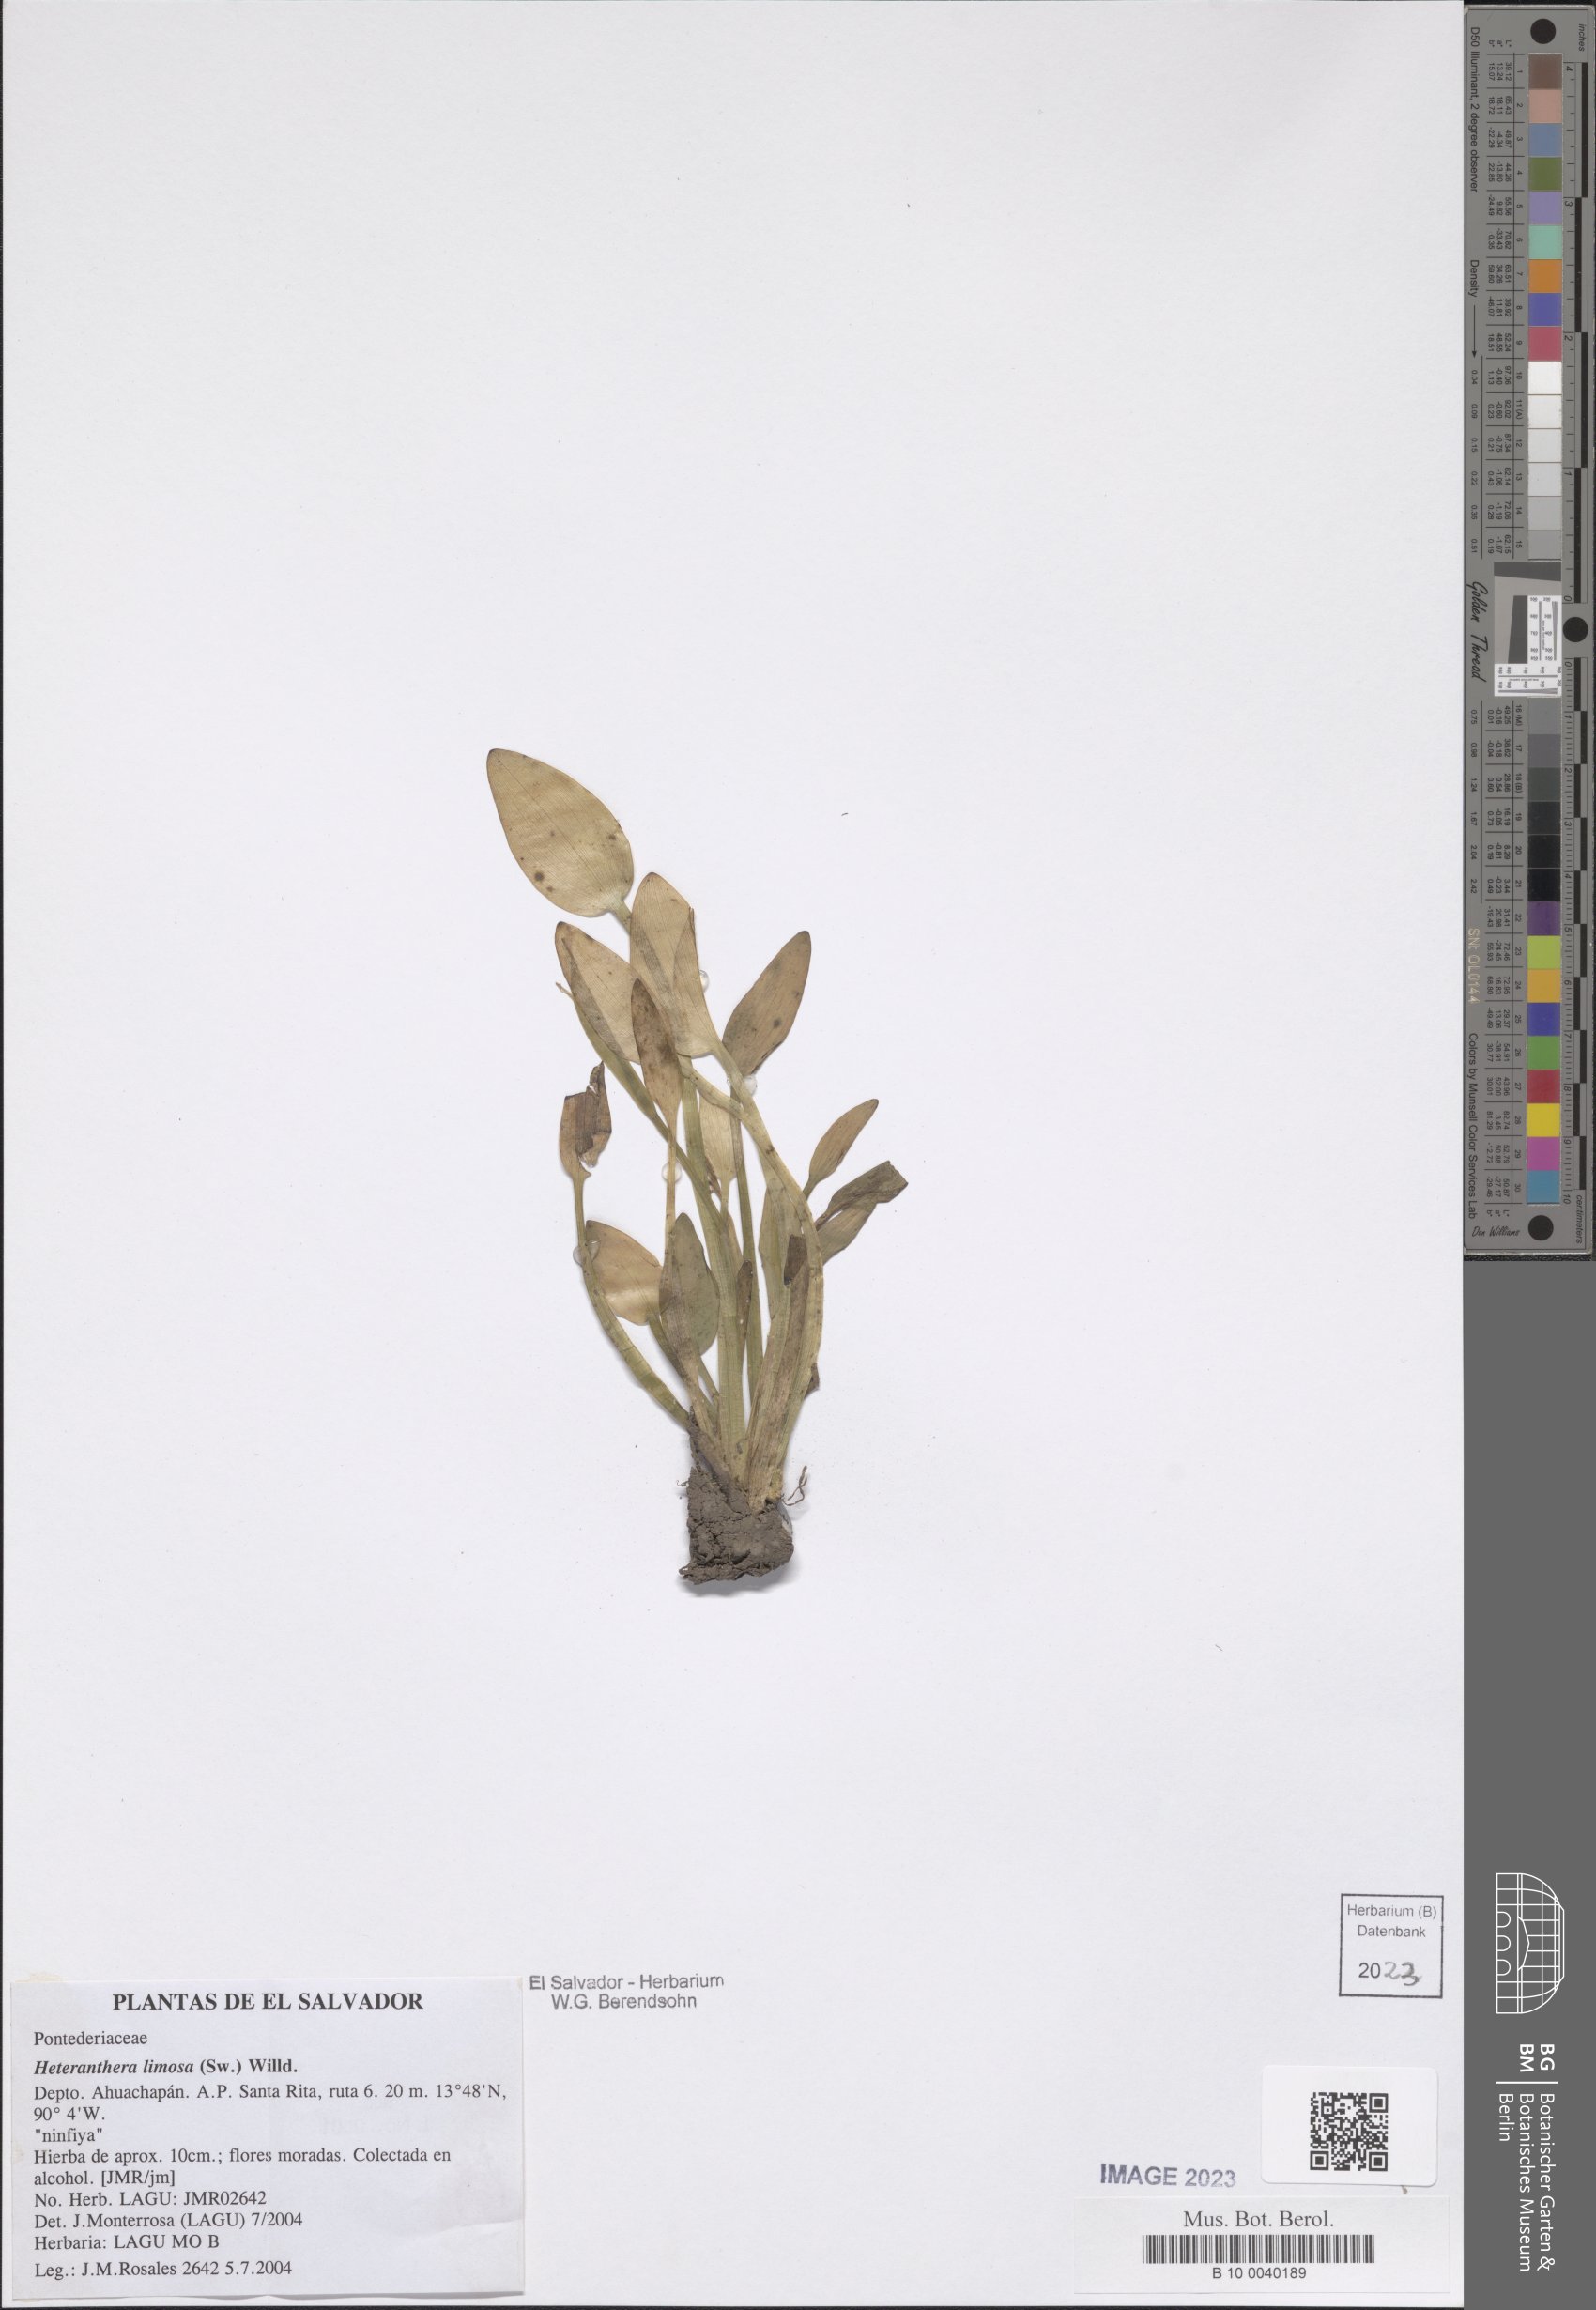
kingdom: Plantae
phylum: Tracheophyta
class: Liliopsida
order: Commelinales
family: Pontederiaceae
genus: Heteranthera
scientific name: Heteranthera limosa
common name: Blue mud-plantain
